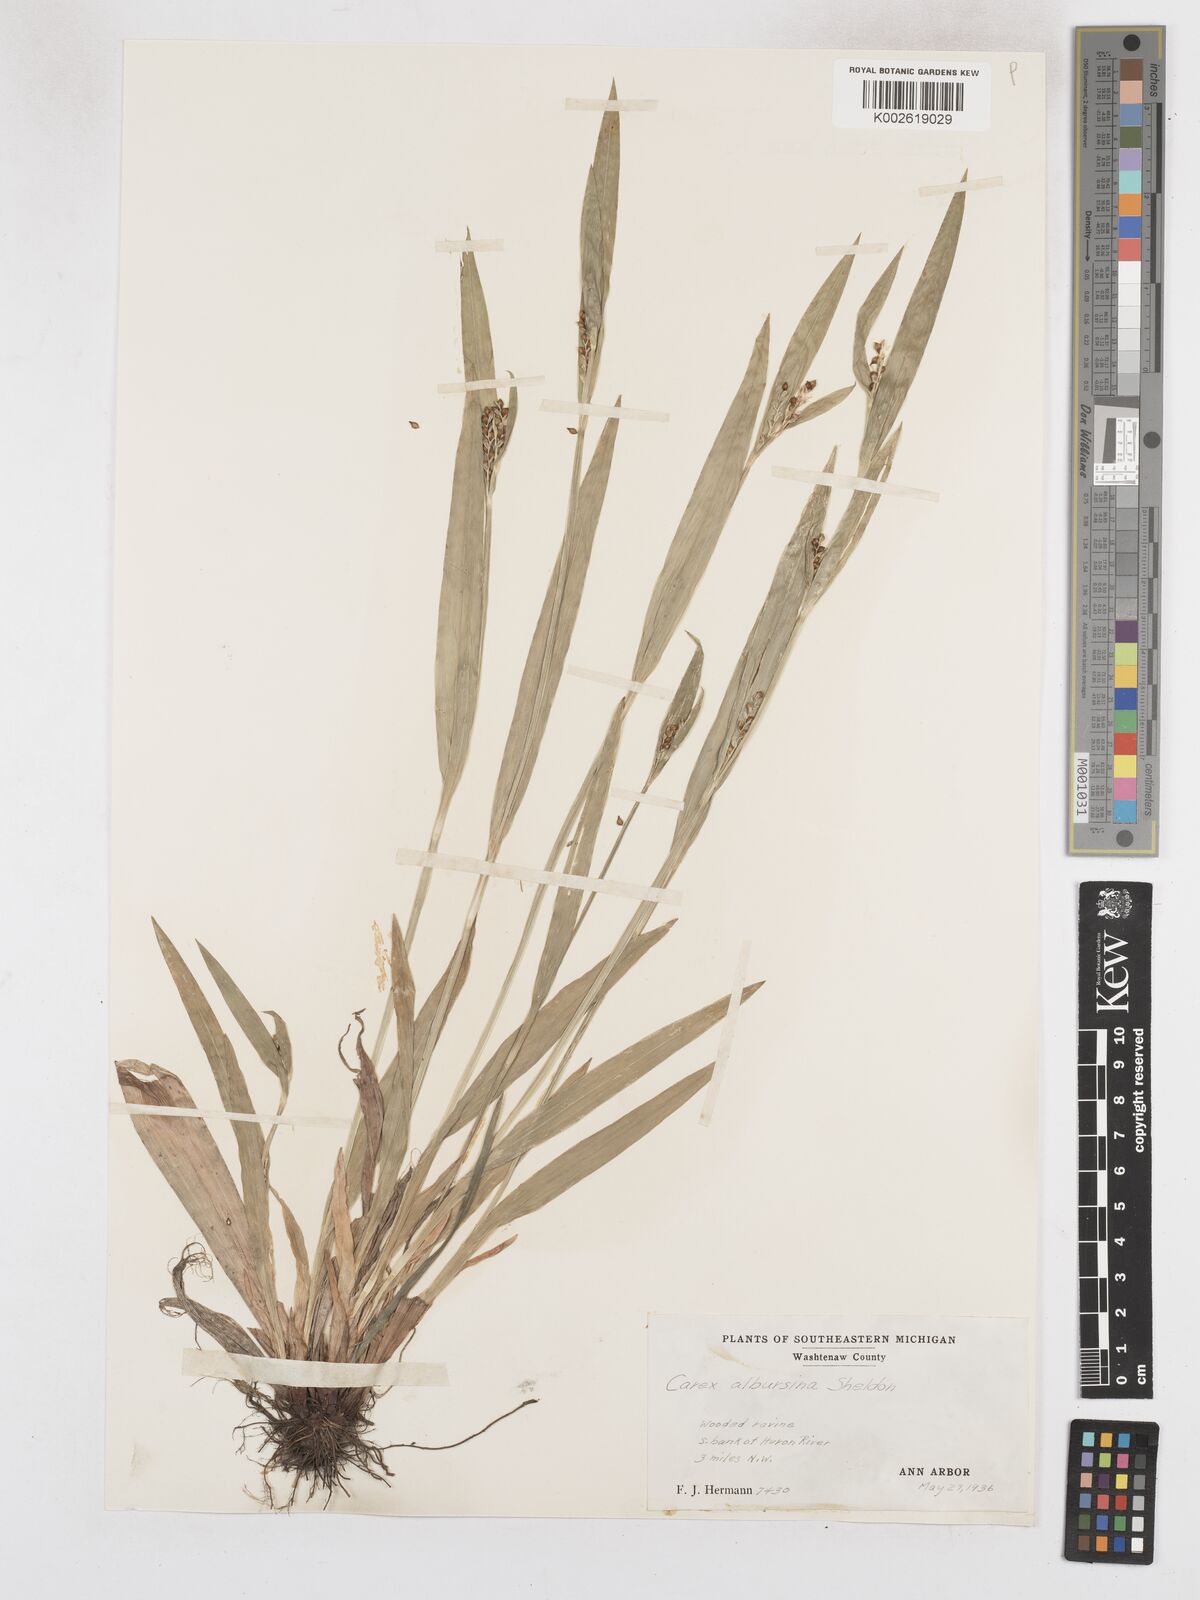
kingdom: Plantae
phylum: Tracheophyta
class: Liliopsida
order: Poales
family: Cyperaceae
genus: Carex
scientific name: Carex albursina
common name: Blunt-scale wood sedge
